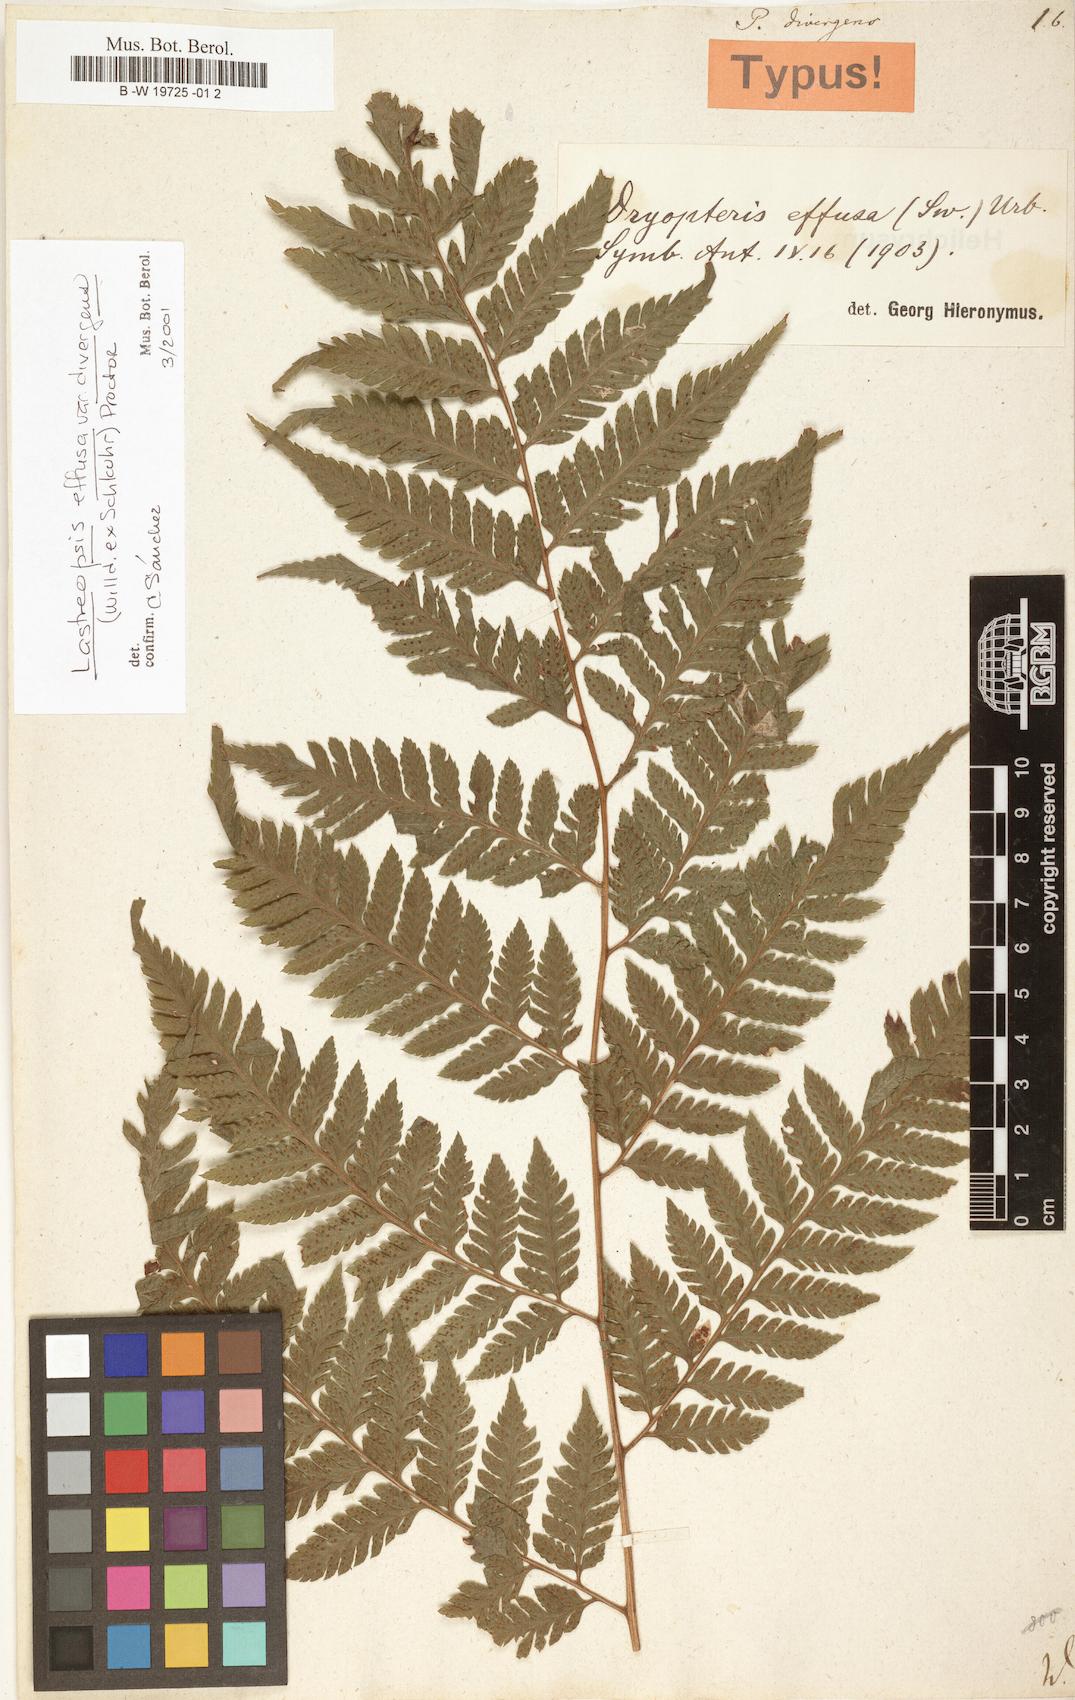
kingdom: Plantae
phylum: Tracheophyta
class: Polypodiopsida
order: Polypodiales
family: Dryopteridaceae
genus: Parapolystichum
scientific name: Parapolystichum effusum
